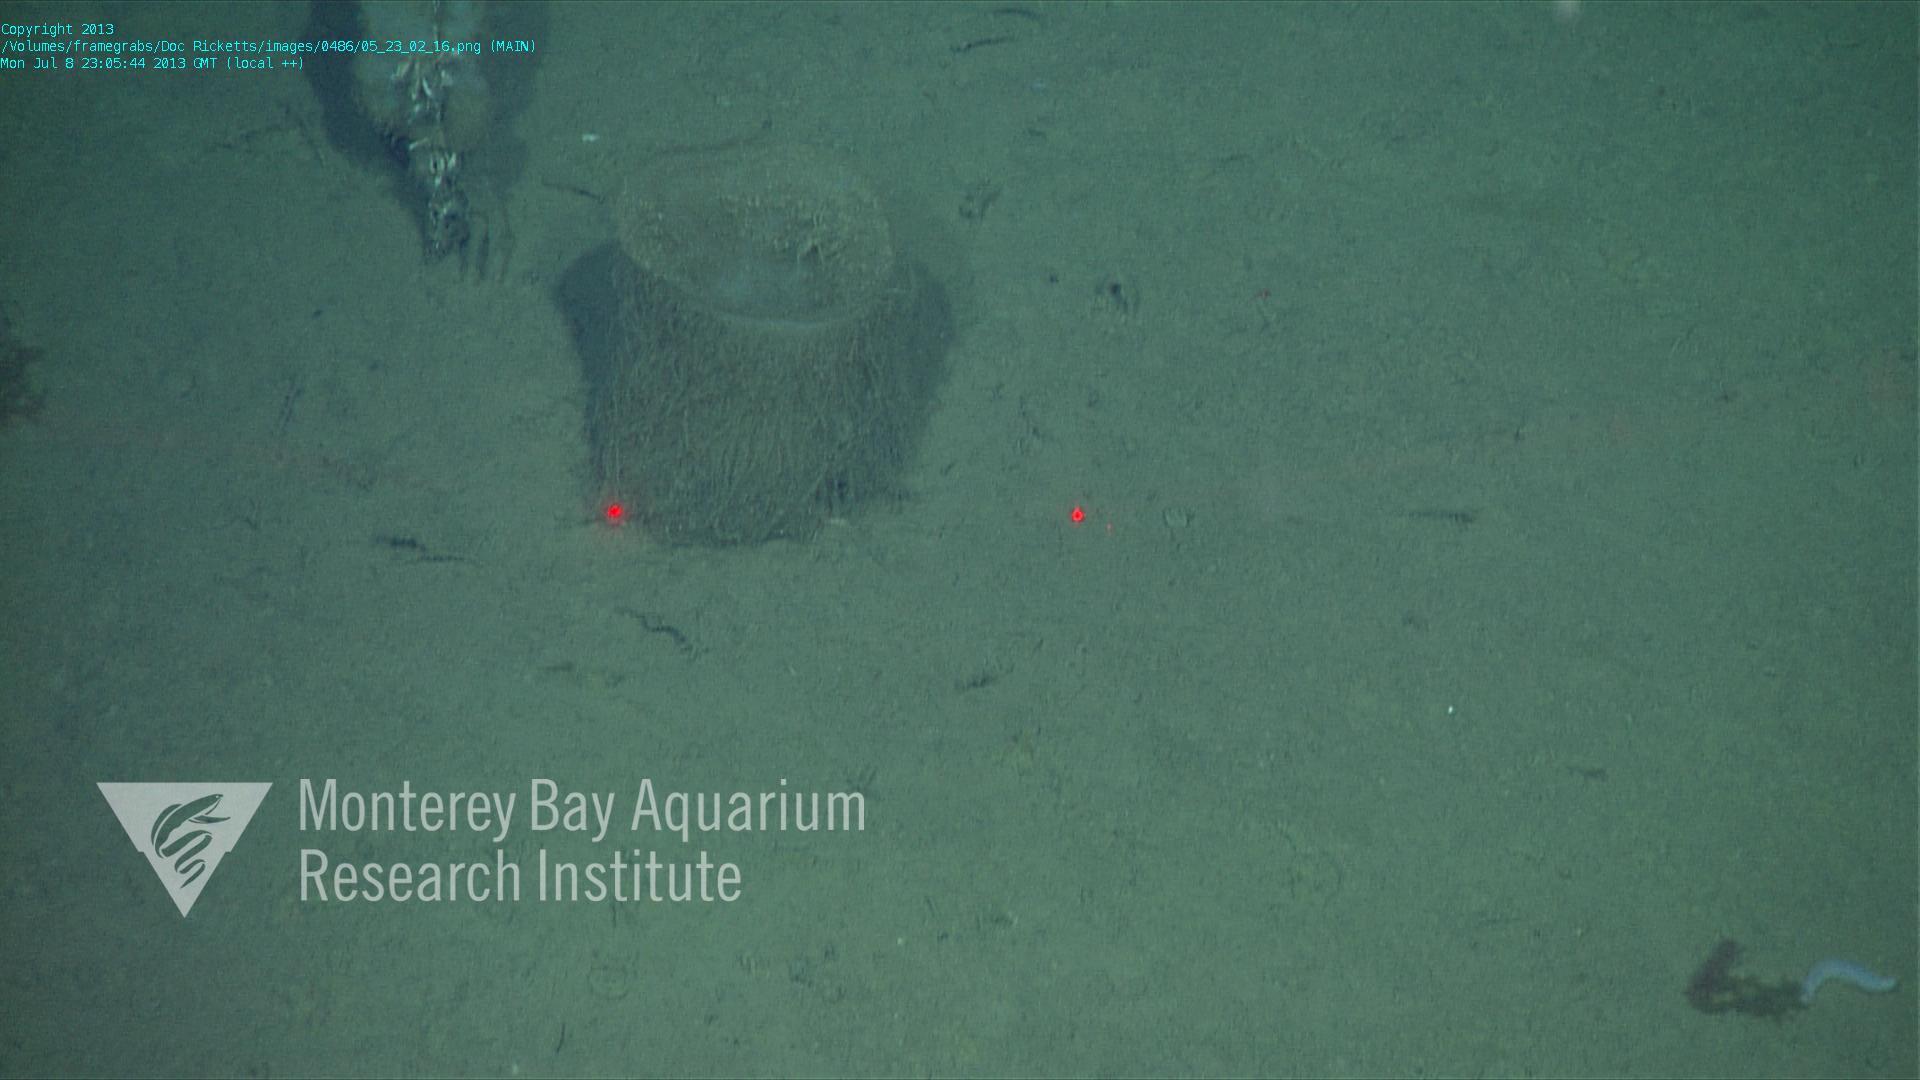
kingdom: Animalia
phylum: Porifera
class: Hexactinellida
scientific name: Hexactinellida
